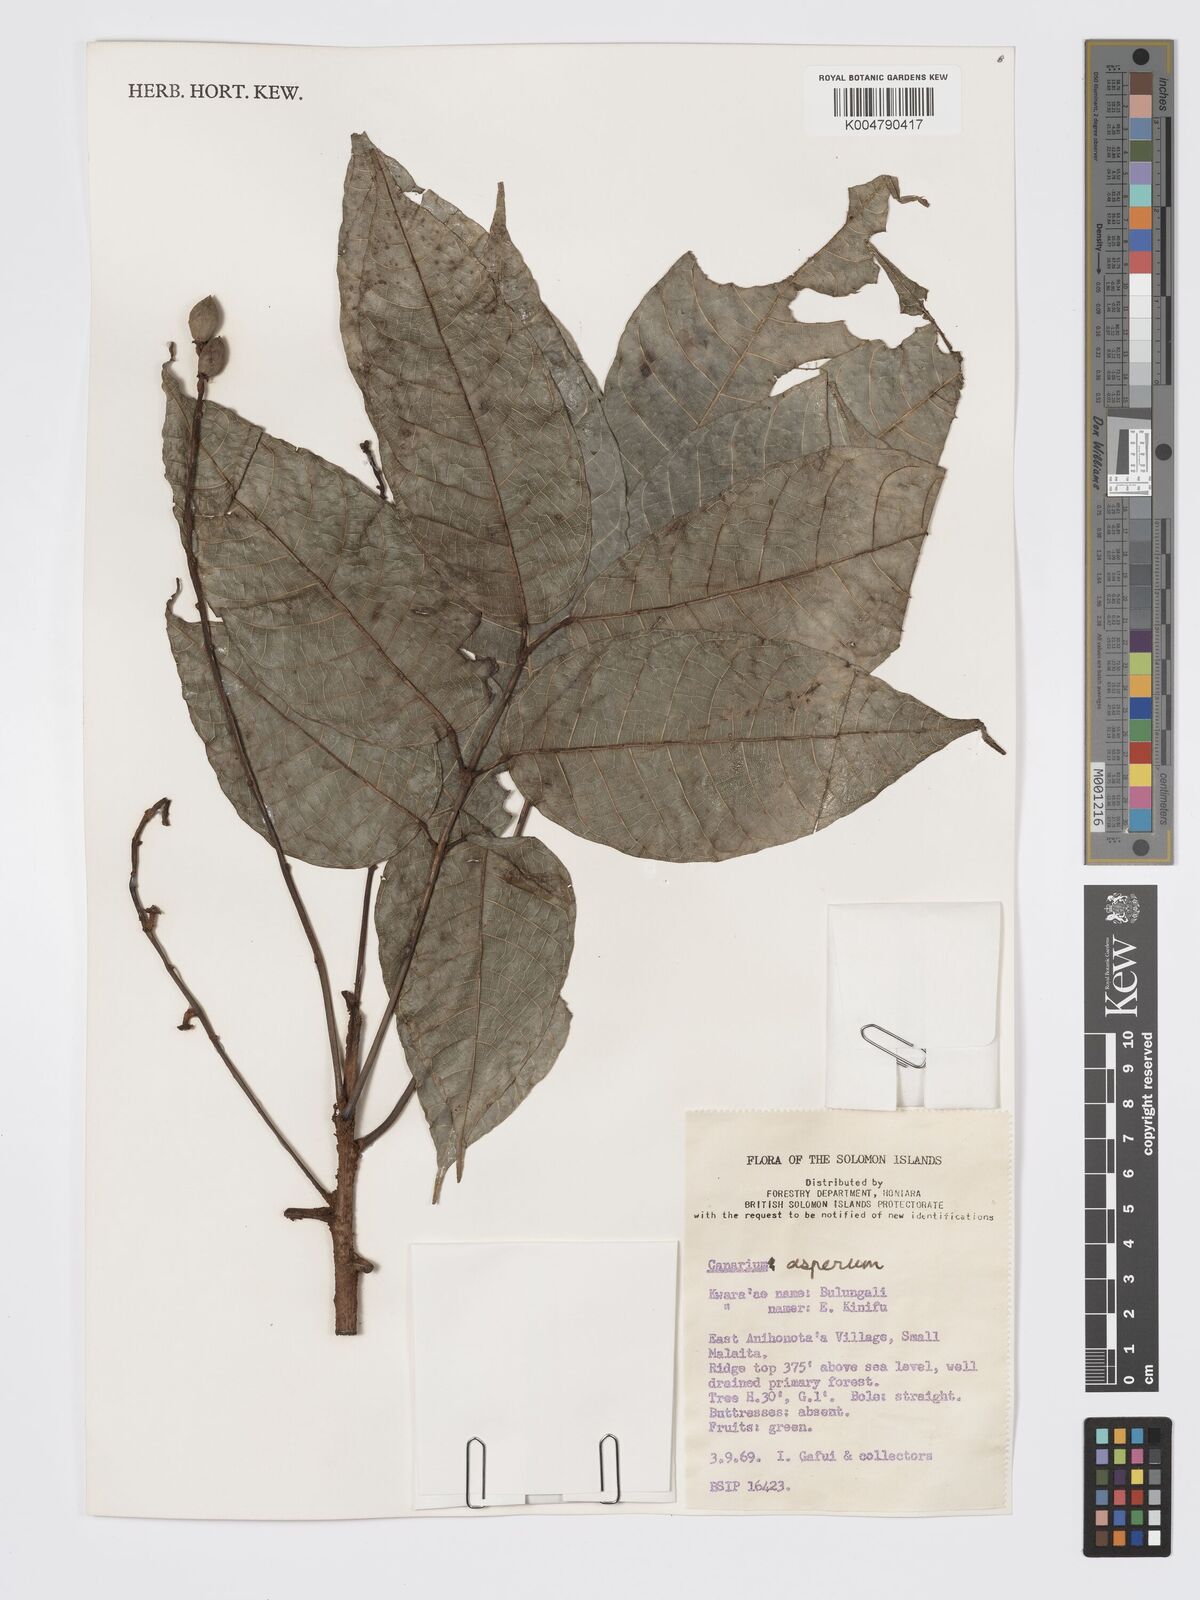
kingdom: Plantae
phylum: Tracheophyta
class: Magnoliopsida
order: Sapindales
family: Burseraceae
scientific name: Burseraceae
